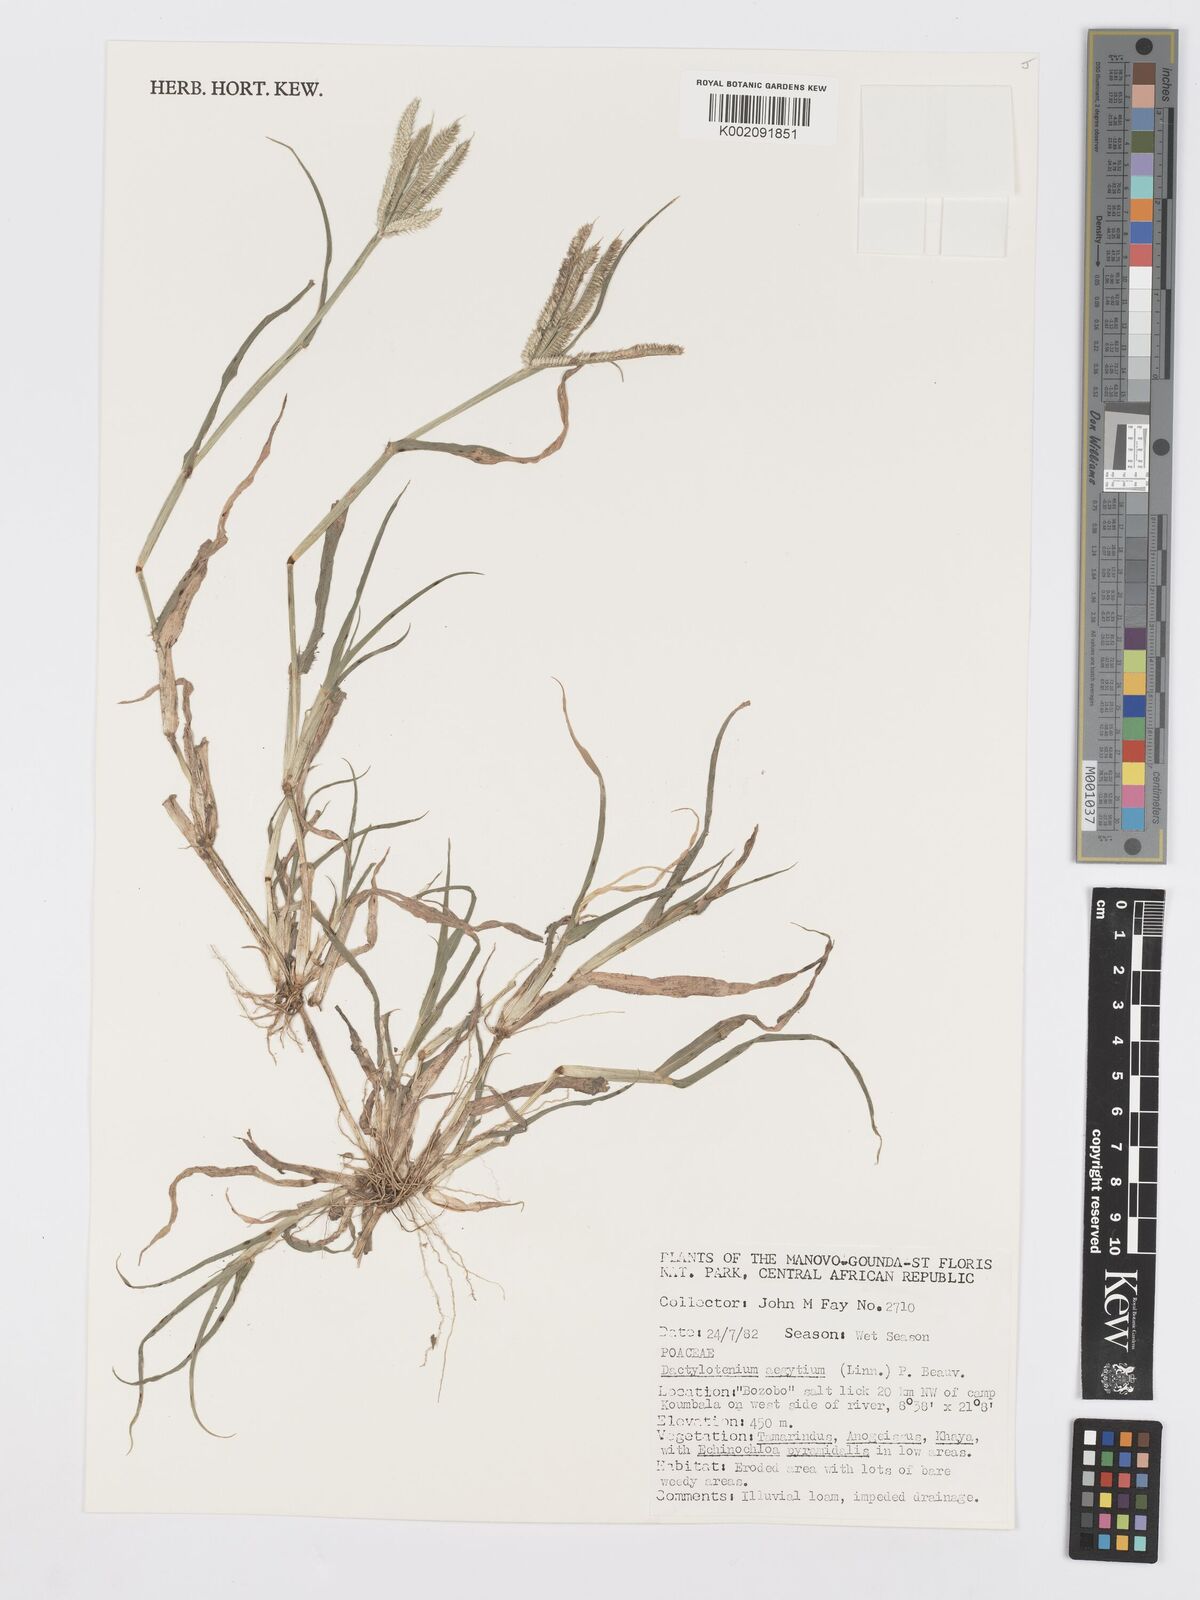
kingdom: Plantae
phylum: Tracheophyta
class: Liliopsida
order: Poales
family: Poaceae
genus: Dactyloctenium
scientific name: Dactyloctenium aegyptium
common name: Egyptian grass
